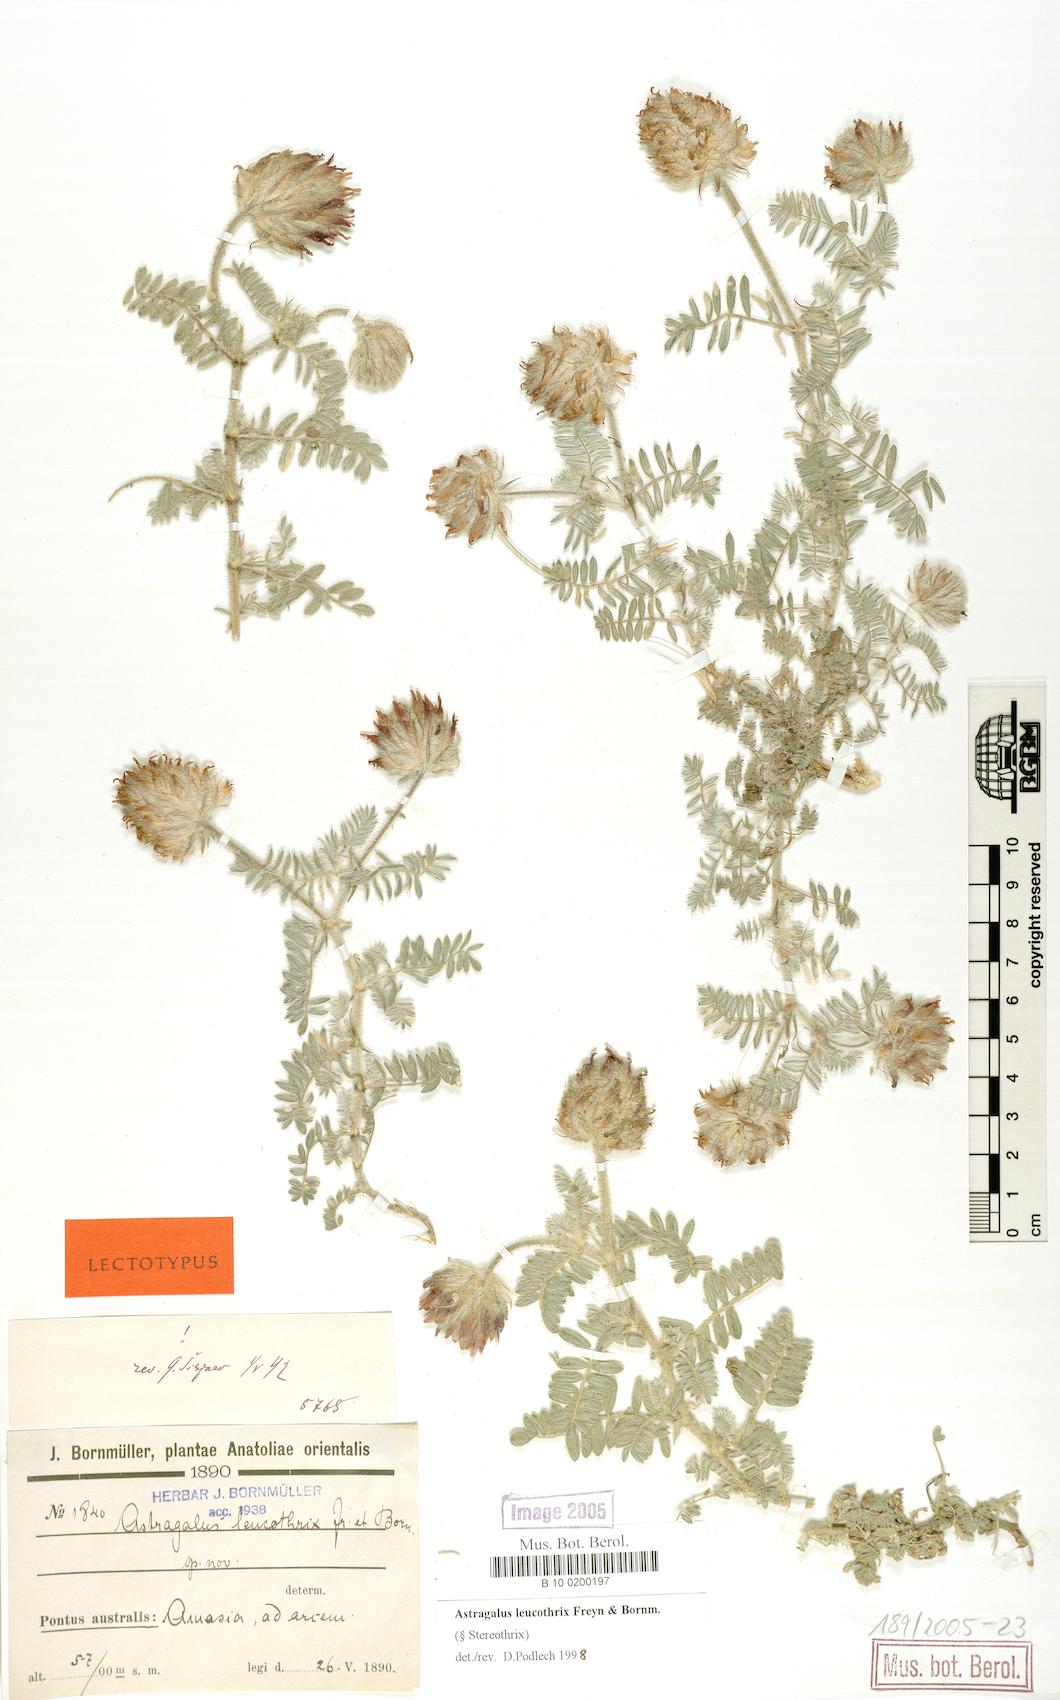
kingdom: Plantae
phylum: Tracheophyta
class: Magnoliopsida
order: Fabales
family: Fabaceae
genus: Astragalus
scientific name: Astragalus leucothrix
